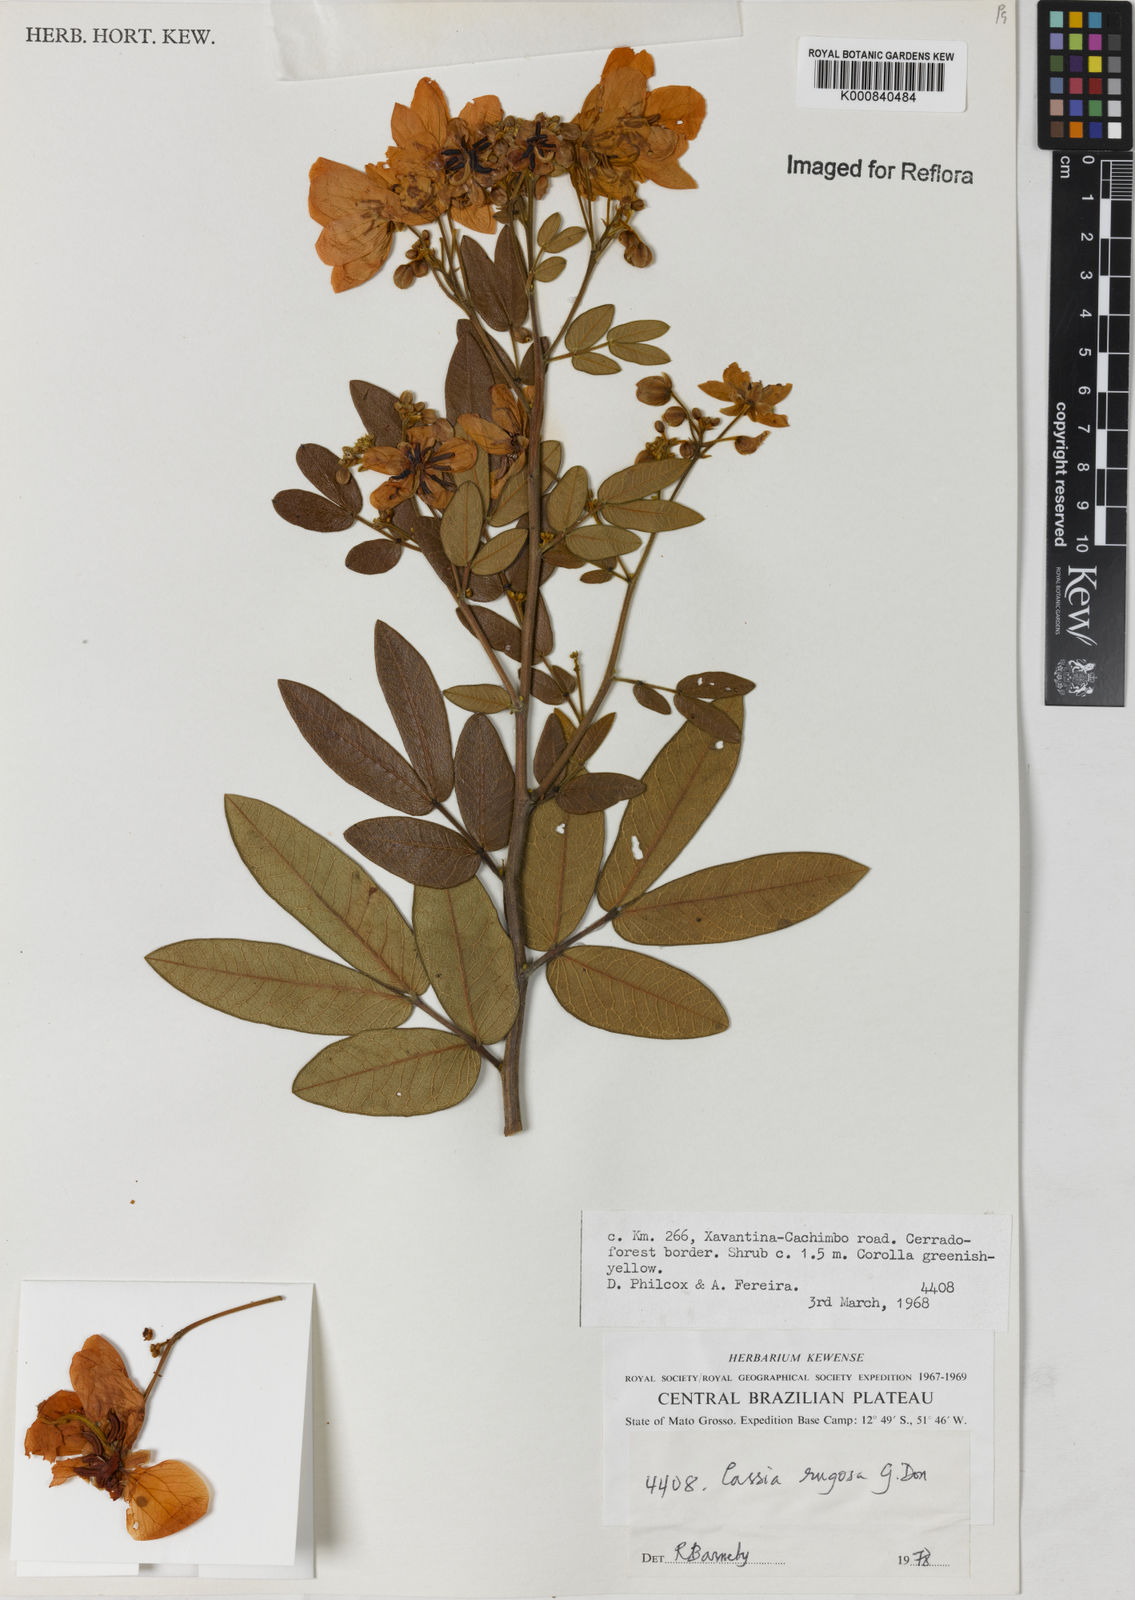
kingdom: Plantae
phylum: Tracheophyta
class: Magnoliopsida
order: Fabales
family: Fabaceae
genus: Senna
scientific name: Senna rugosa
